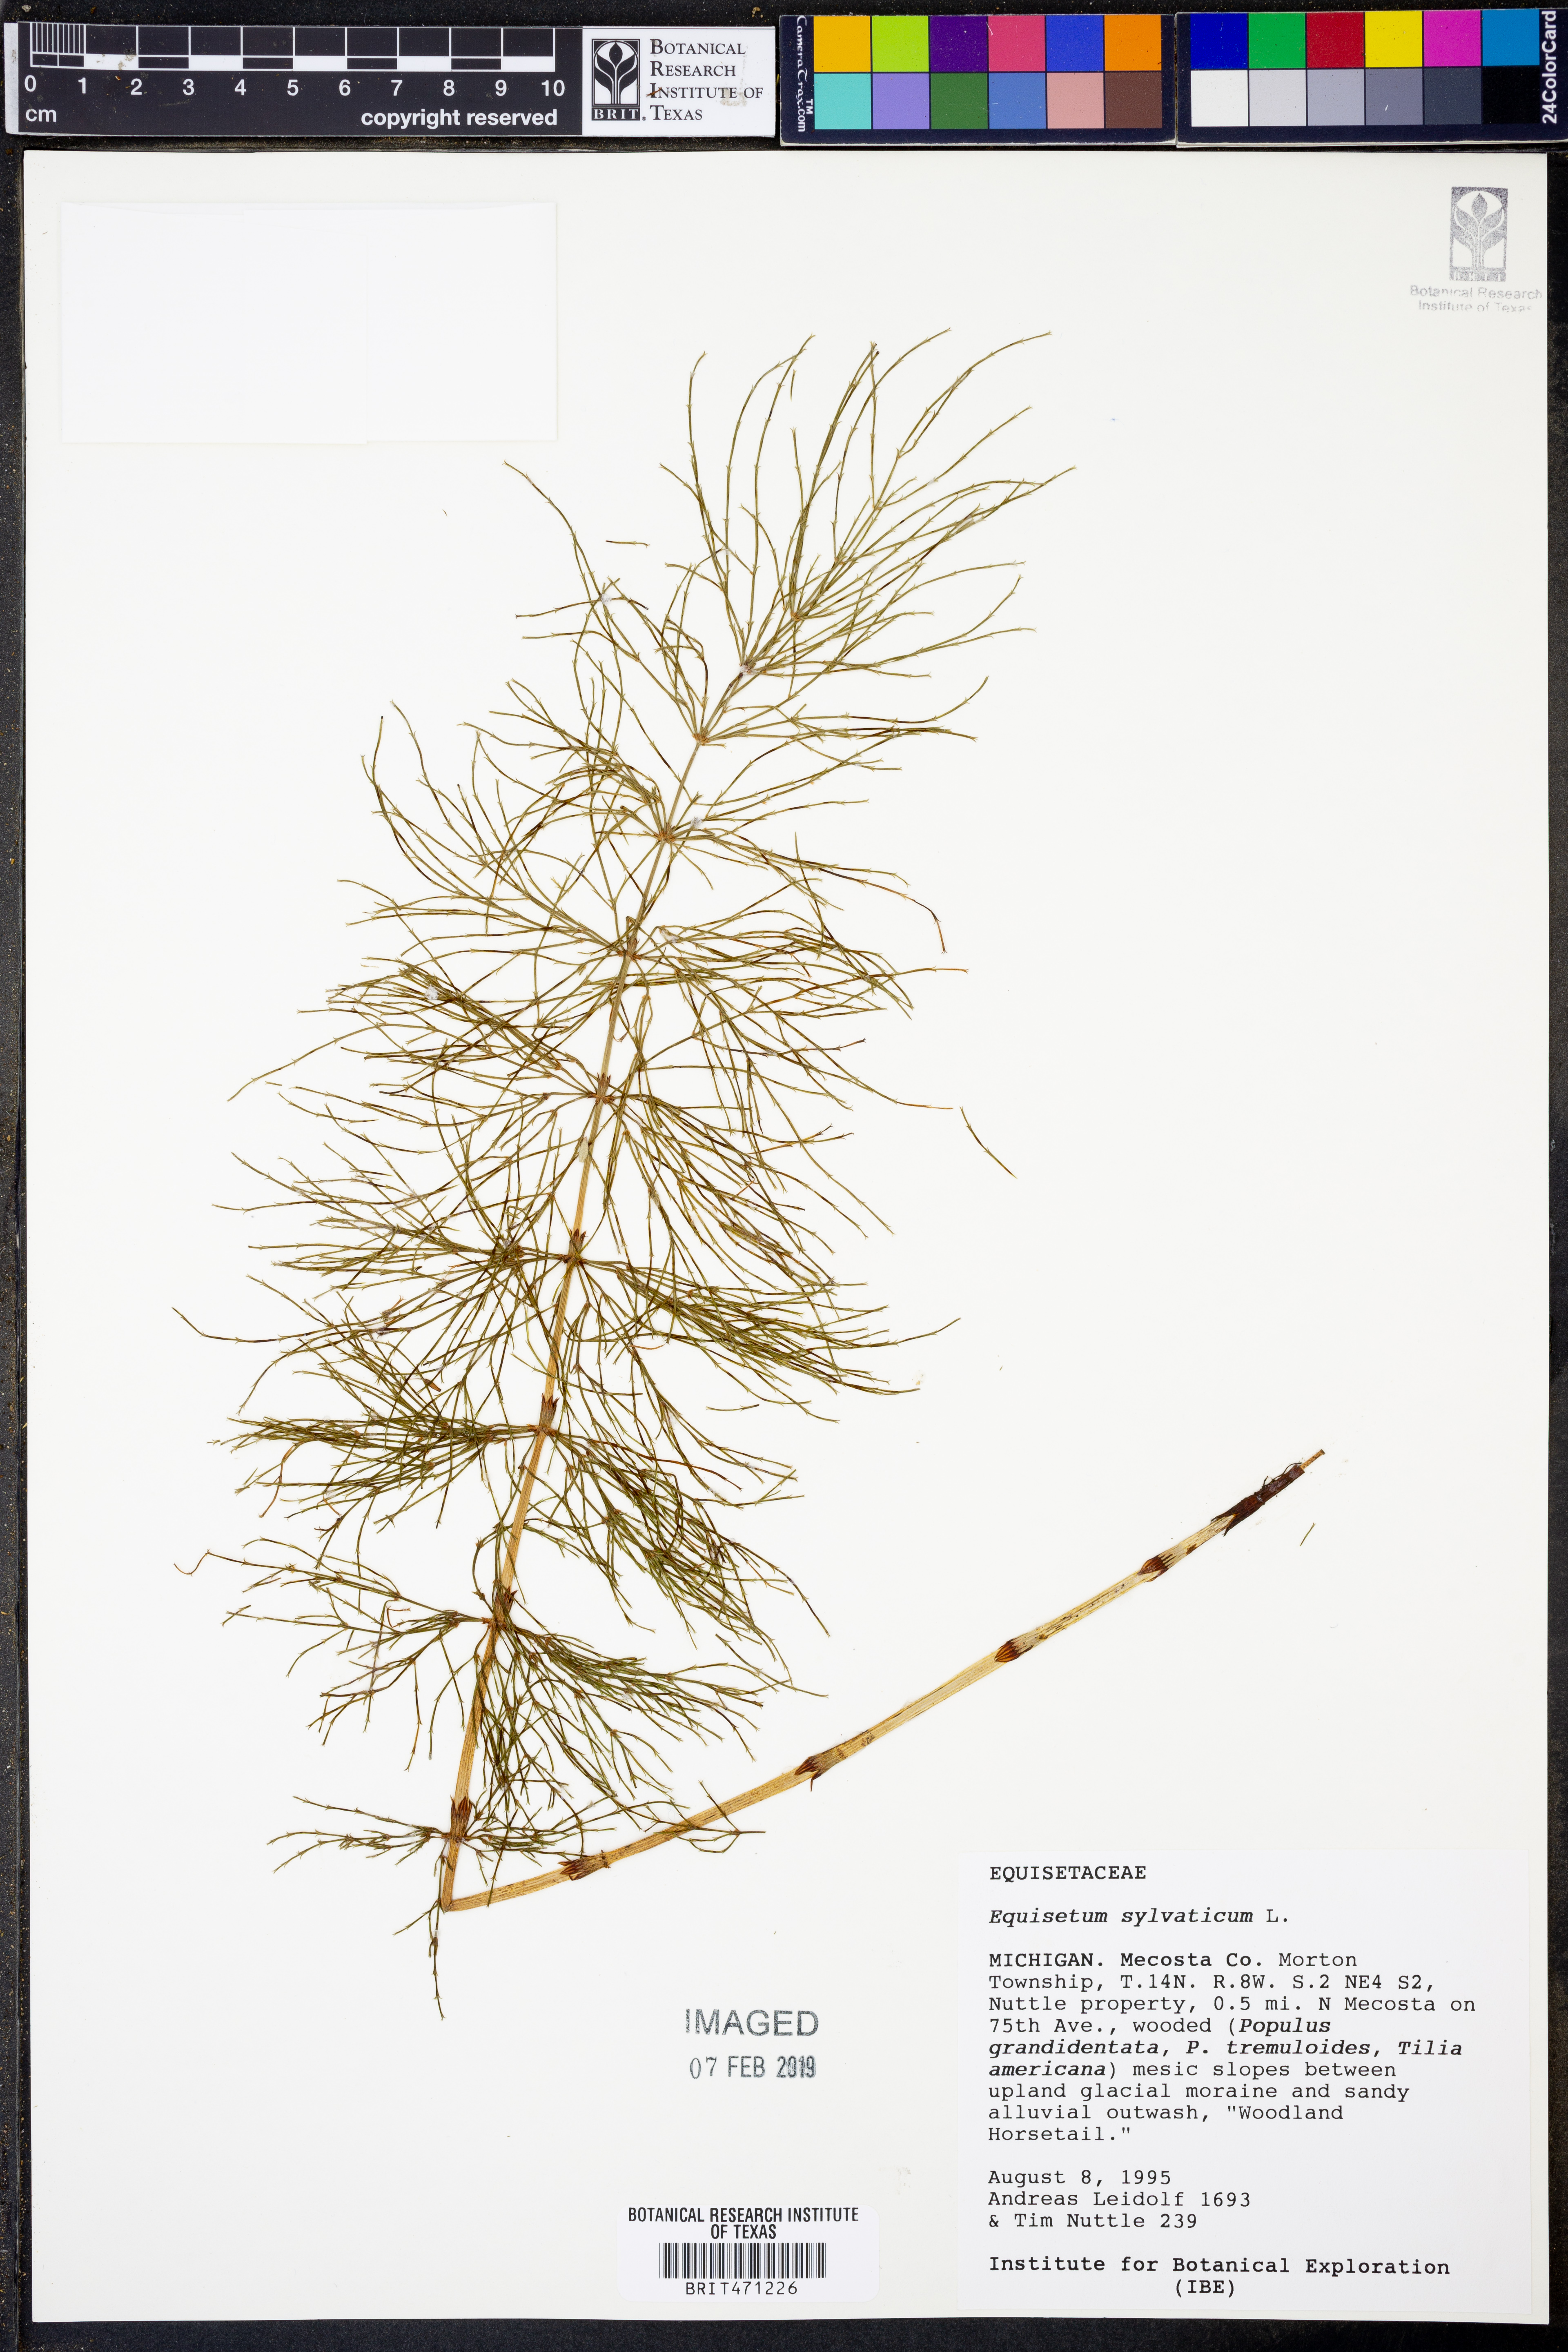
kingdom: Plantae
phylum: Tracheophyta
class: Polypodiopsida
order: Equisetales
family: Equisetaceae
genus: Equisetum
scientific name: Equisetum sylvaticum
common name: Wood horsetail
